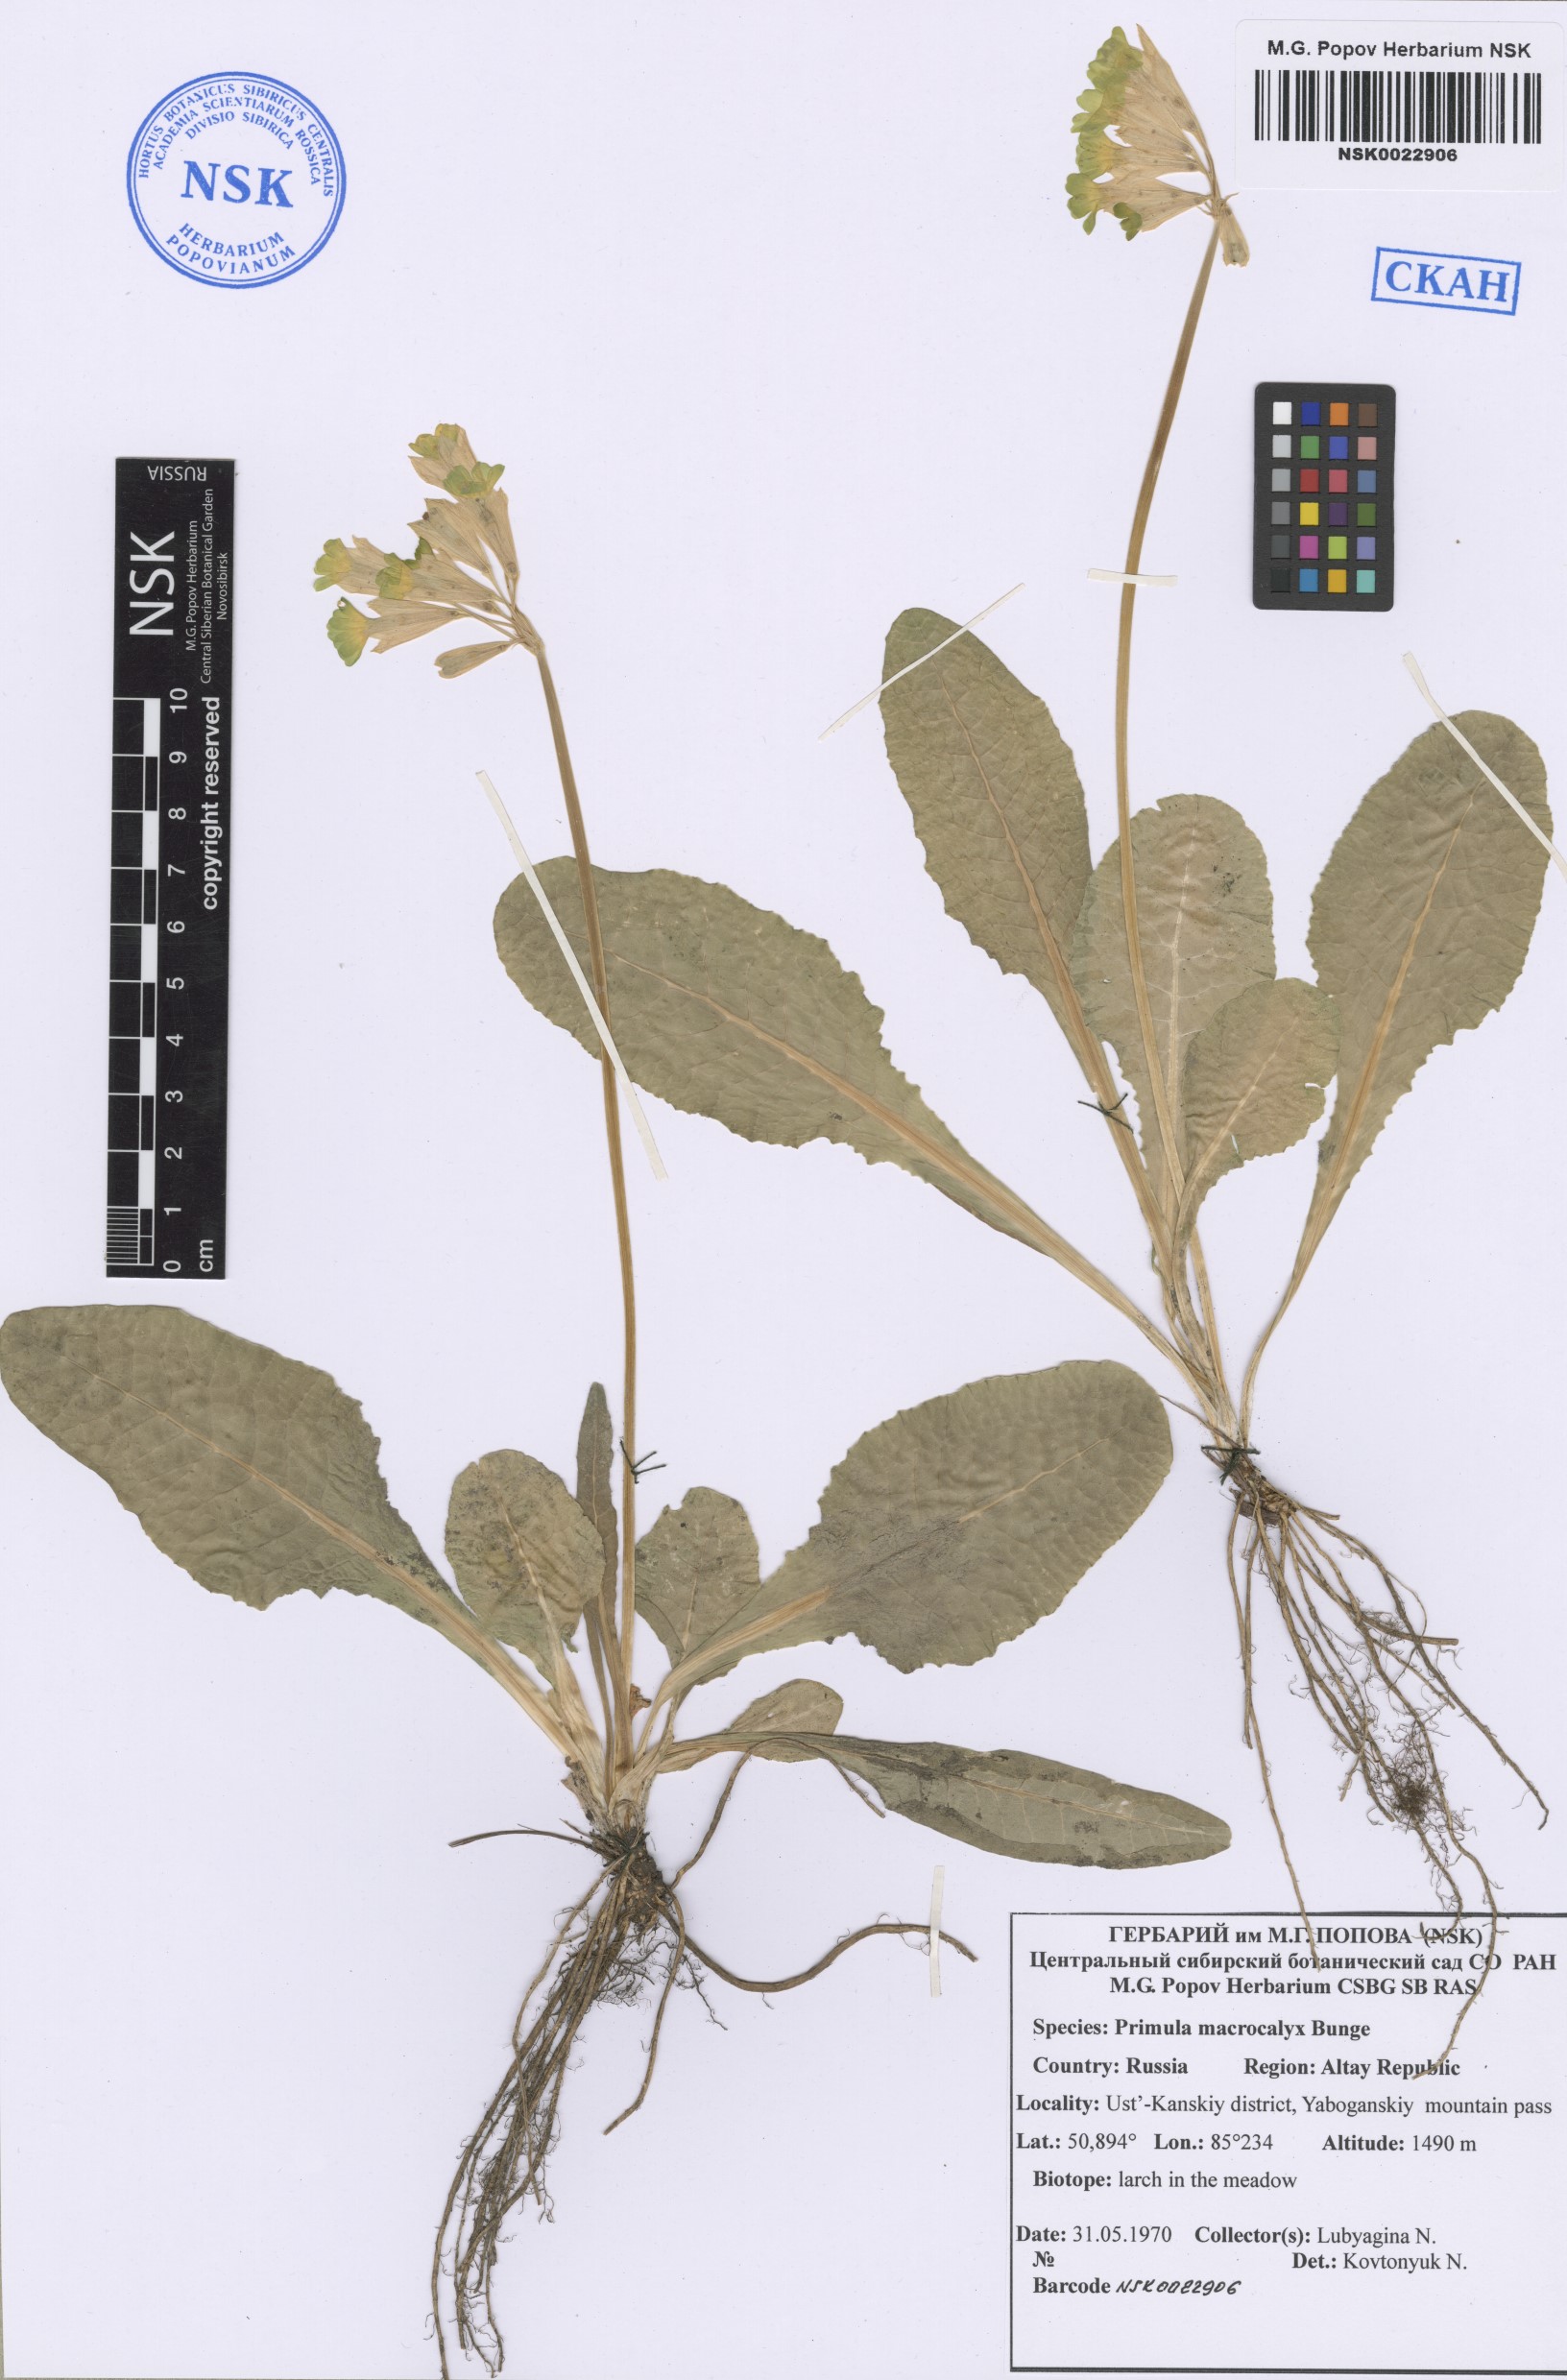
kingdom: Plantae
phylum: Tracheophyta
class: Magnoliopsida
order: Ericales
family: Primulaceae
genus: Primula
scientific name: Primula veris
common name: Cowslip
